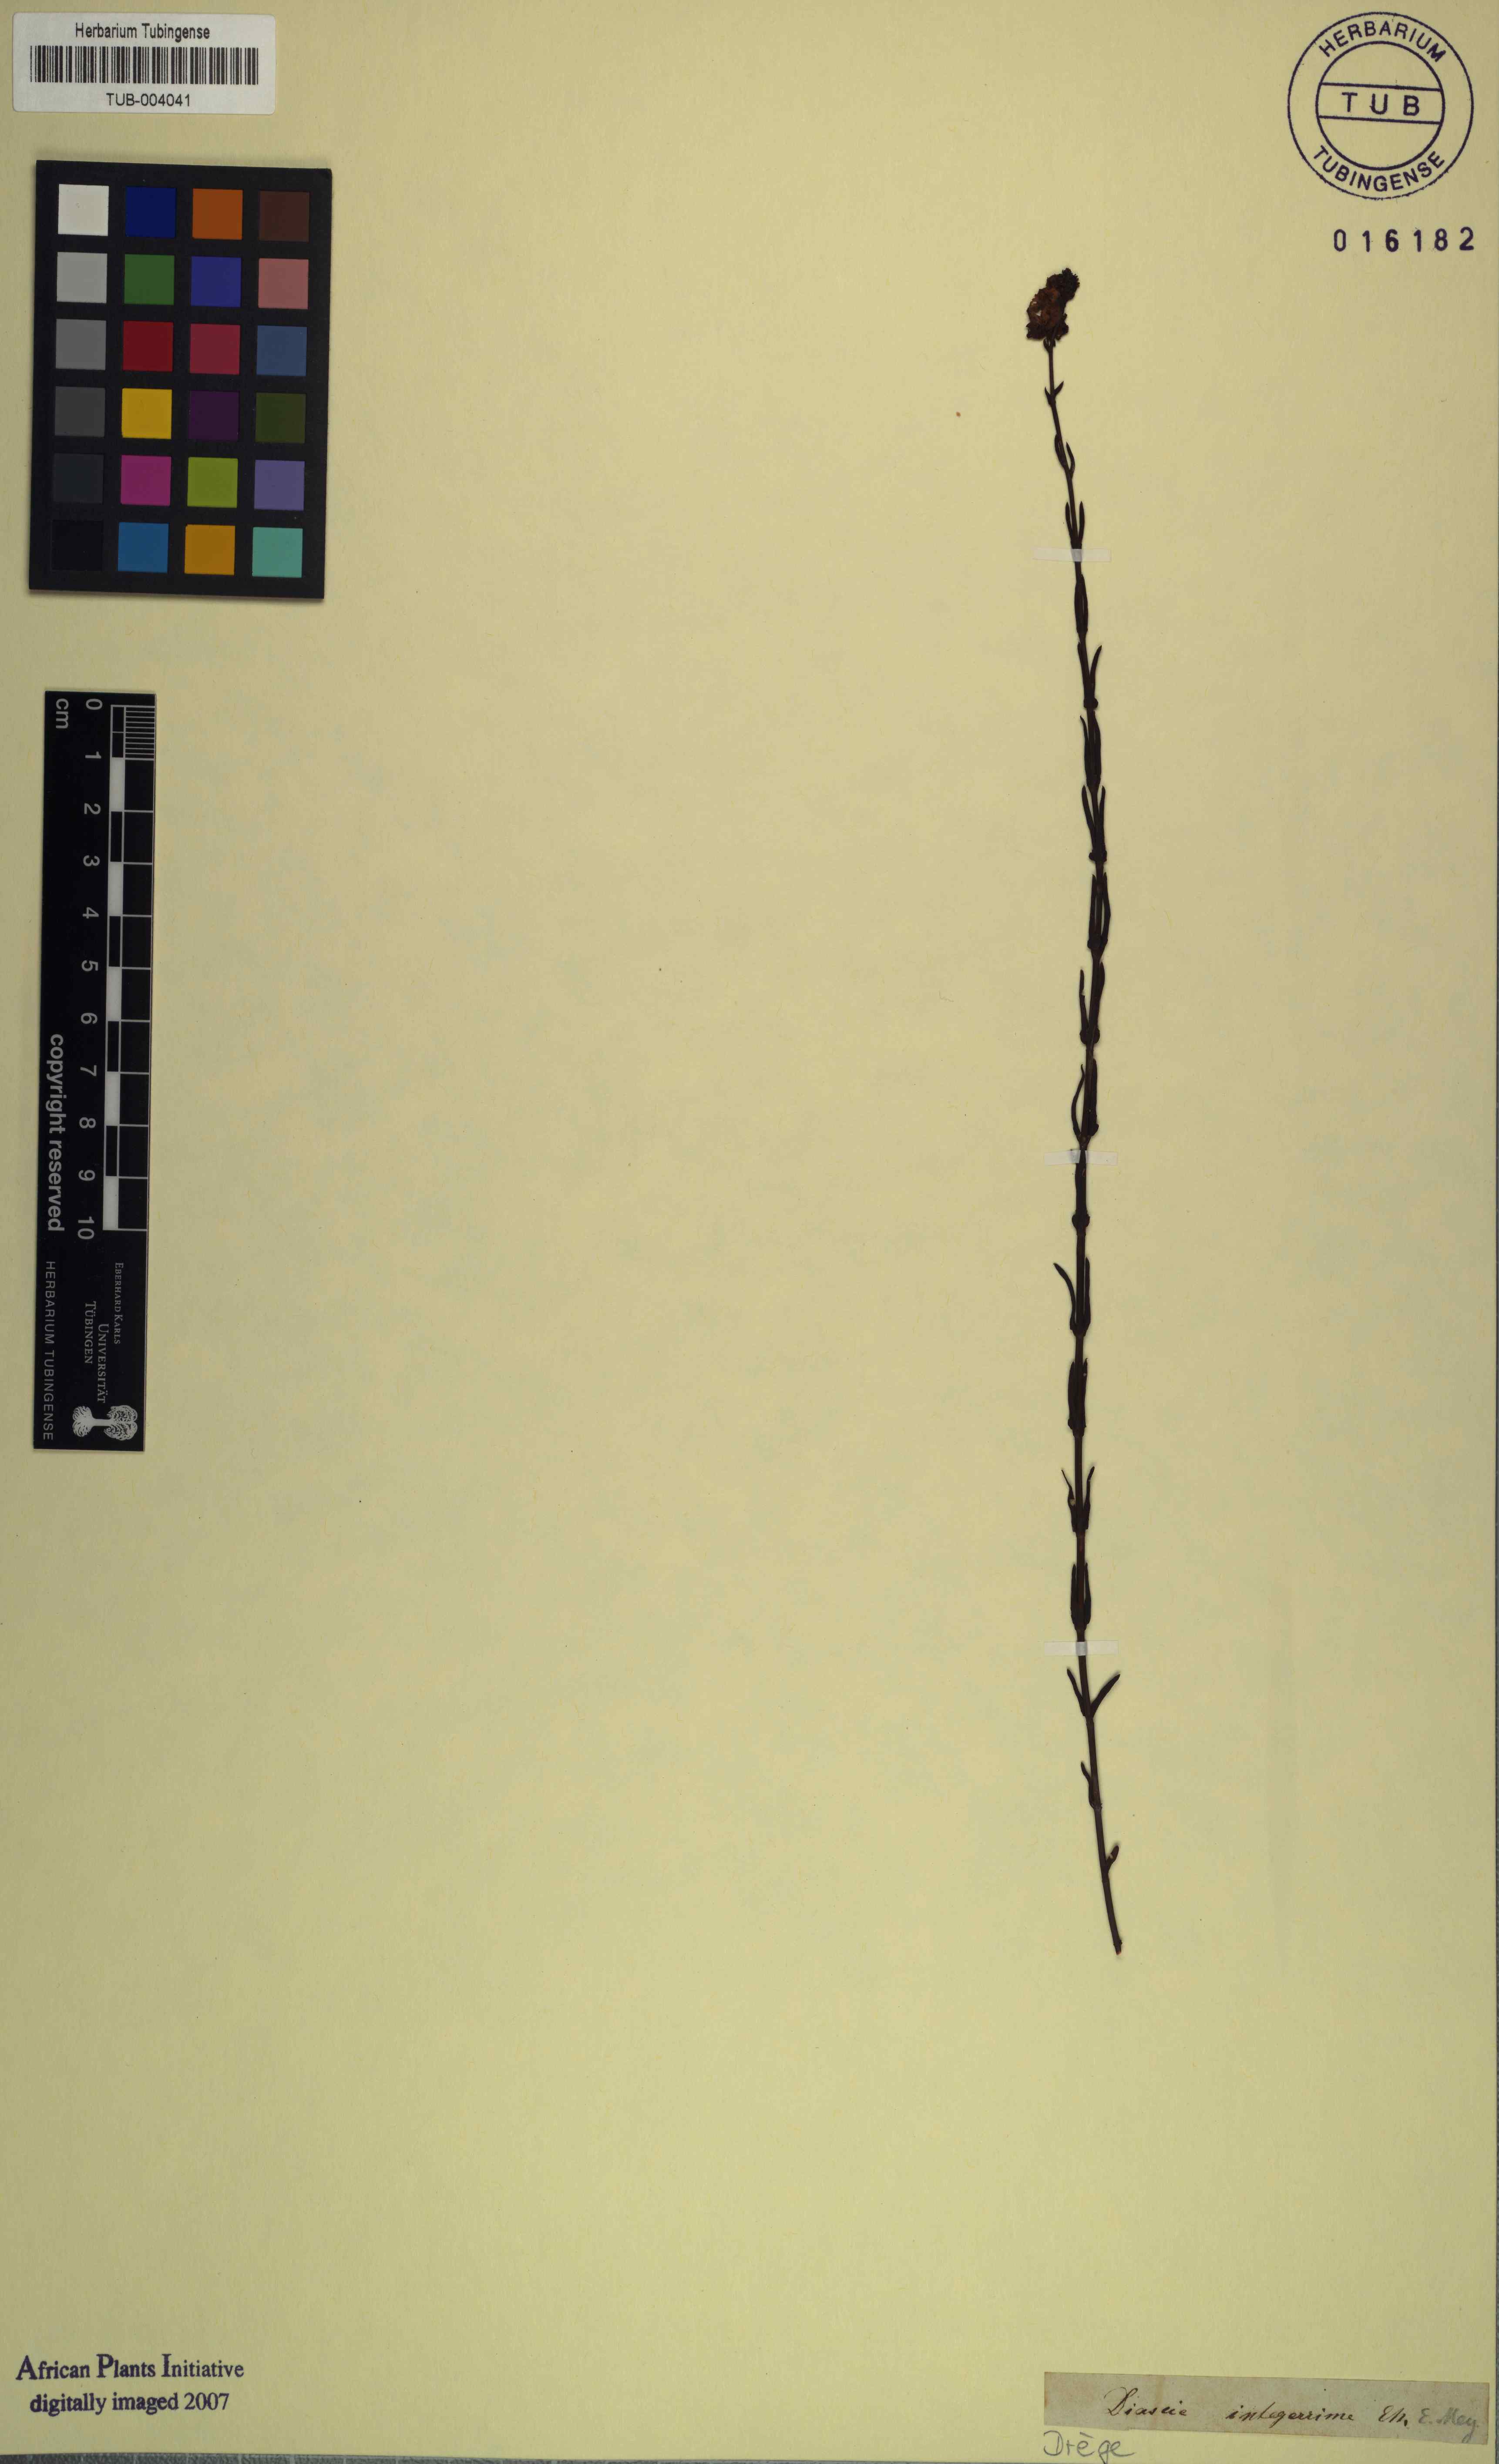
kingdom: Plantae
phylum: Tracheophyta
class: Magnoliopsida
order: Lamiales
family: Scrophulariaceae
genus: Diascia
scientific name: Diascia integerrima
